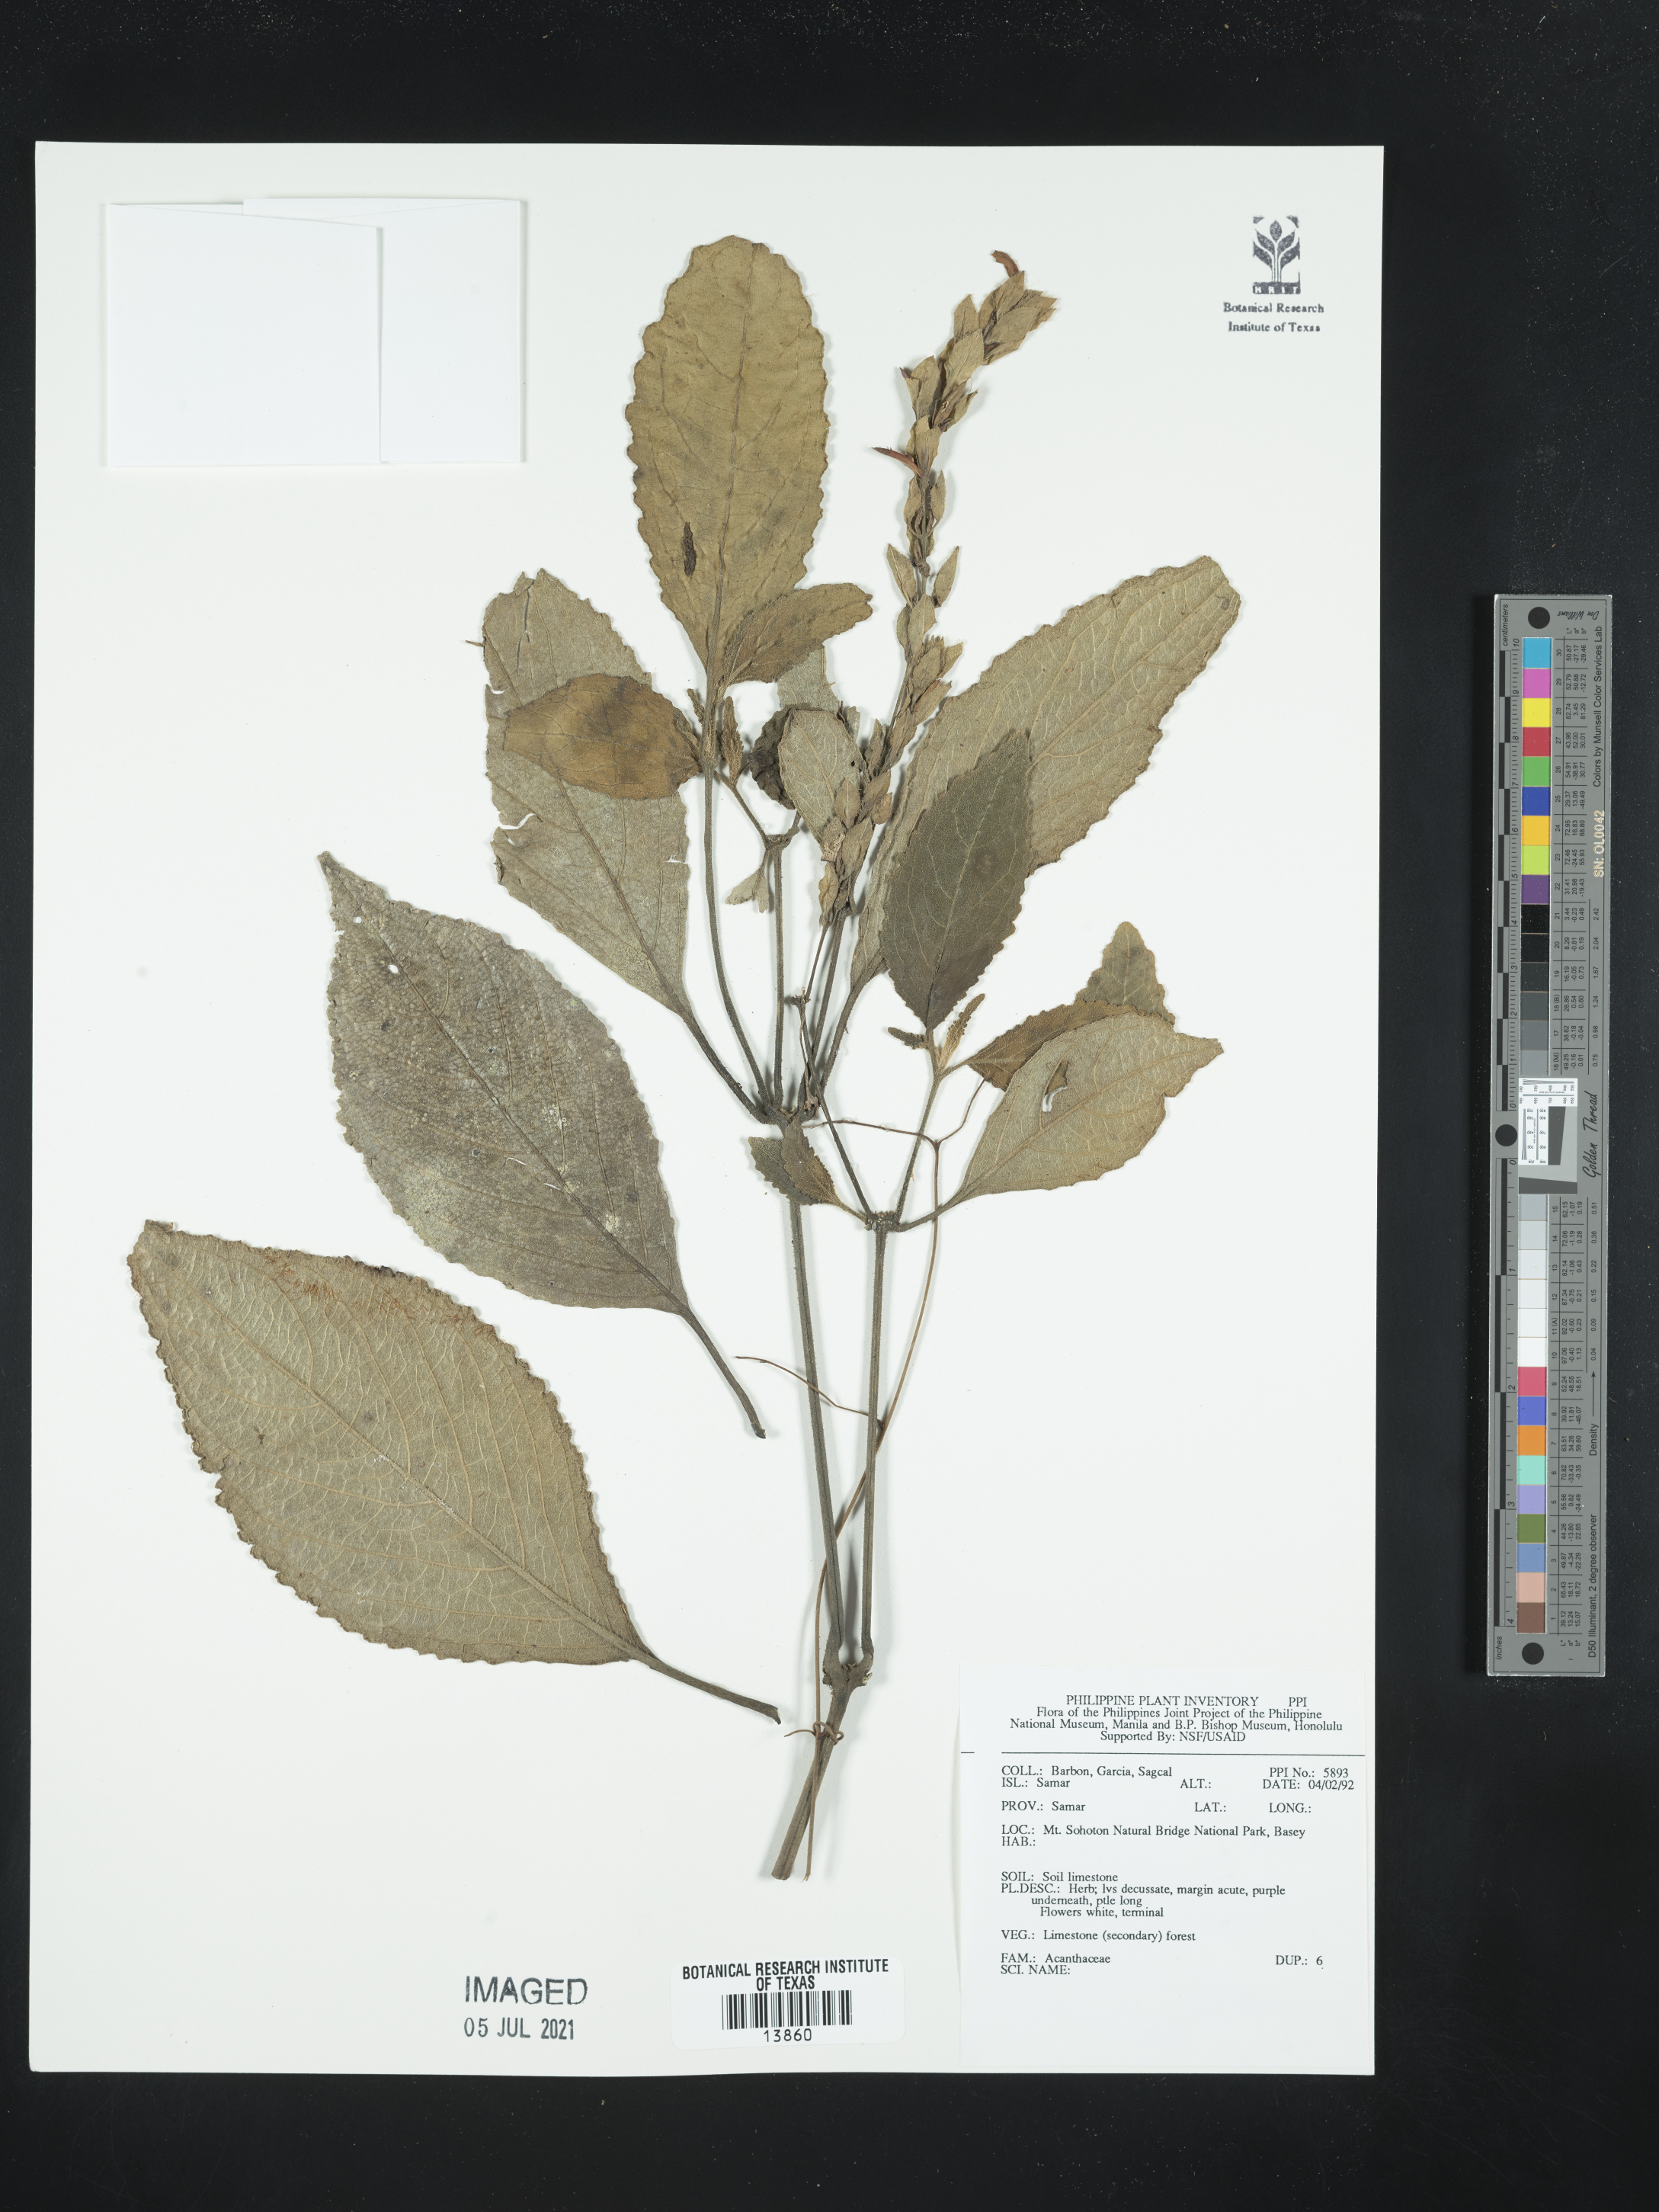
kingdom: Plantae
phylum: Tracheophyta
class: Magnoliopsida
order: Lamiales
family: Acanthaceae
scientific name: Acanthaceae
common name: Acanthaceae
